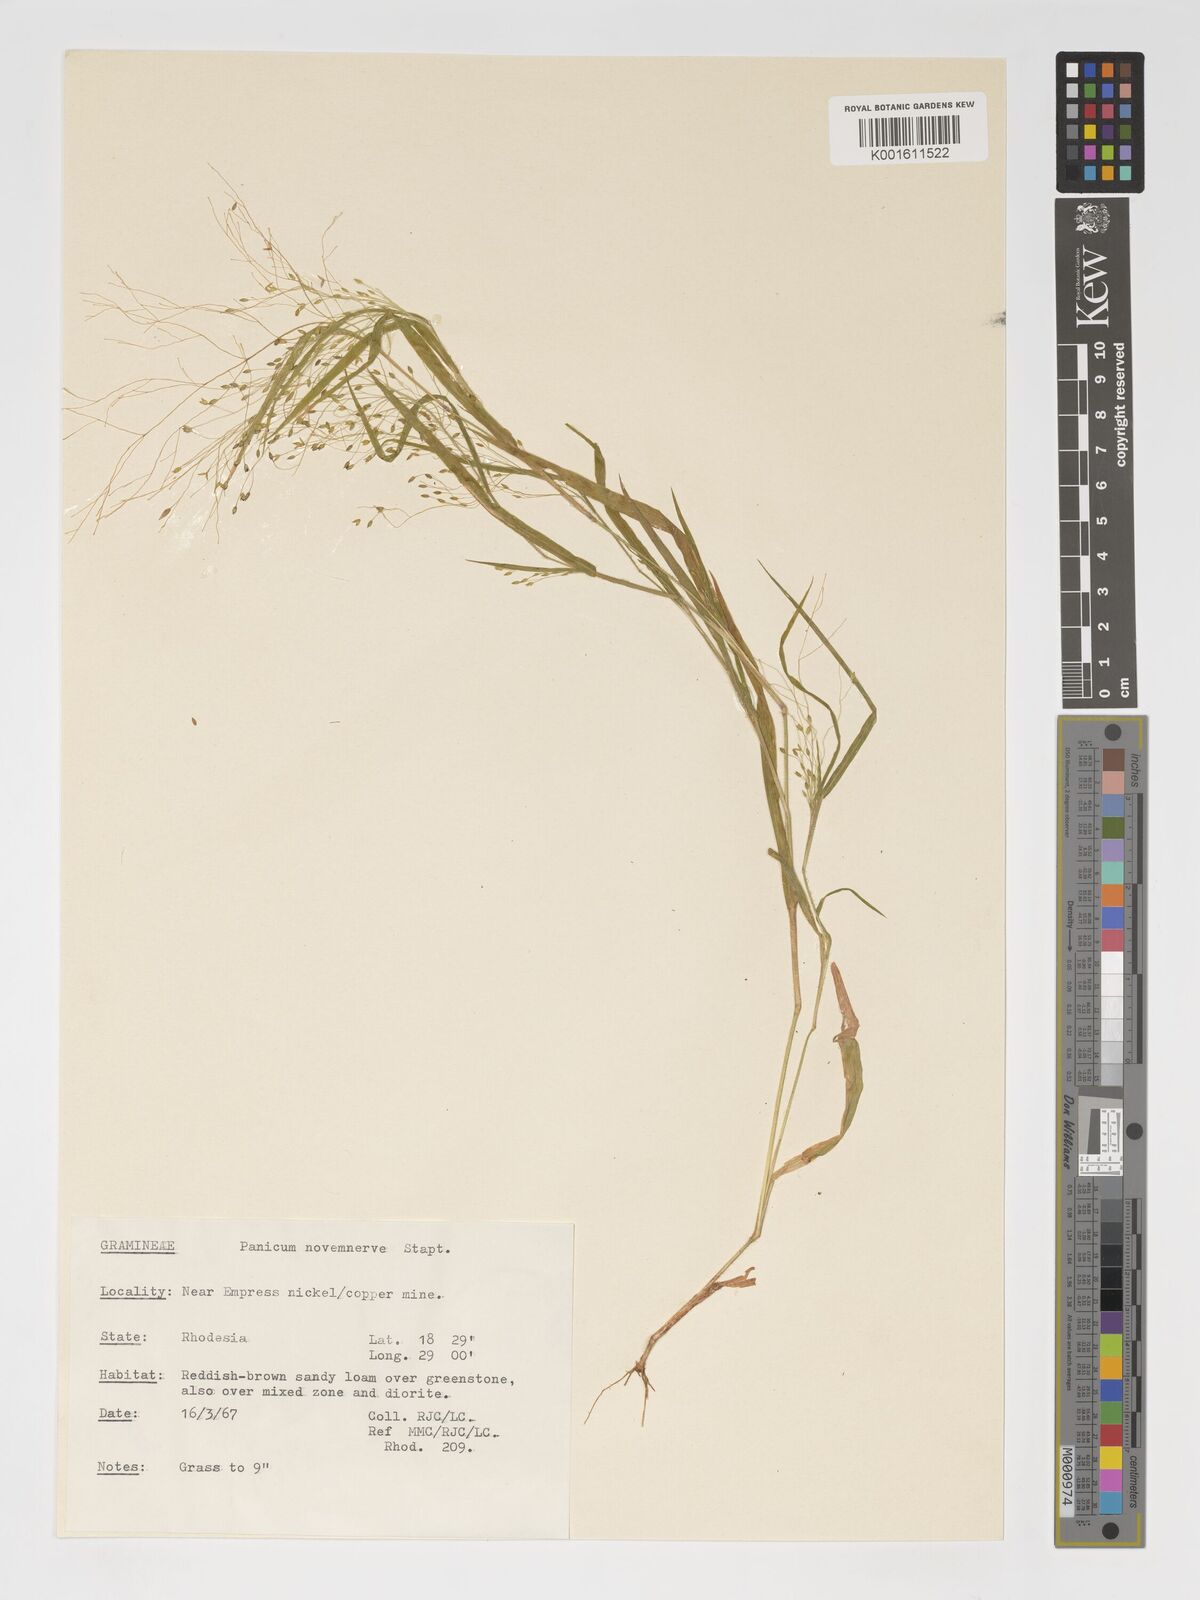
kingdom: Plantae
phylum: Tracheophyta
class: Liliopsida
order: Poales
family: Poaceae
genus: Panicum
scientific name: Panicum novemnerve
